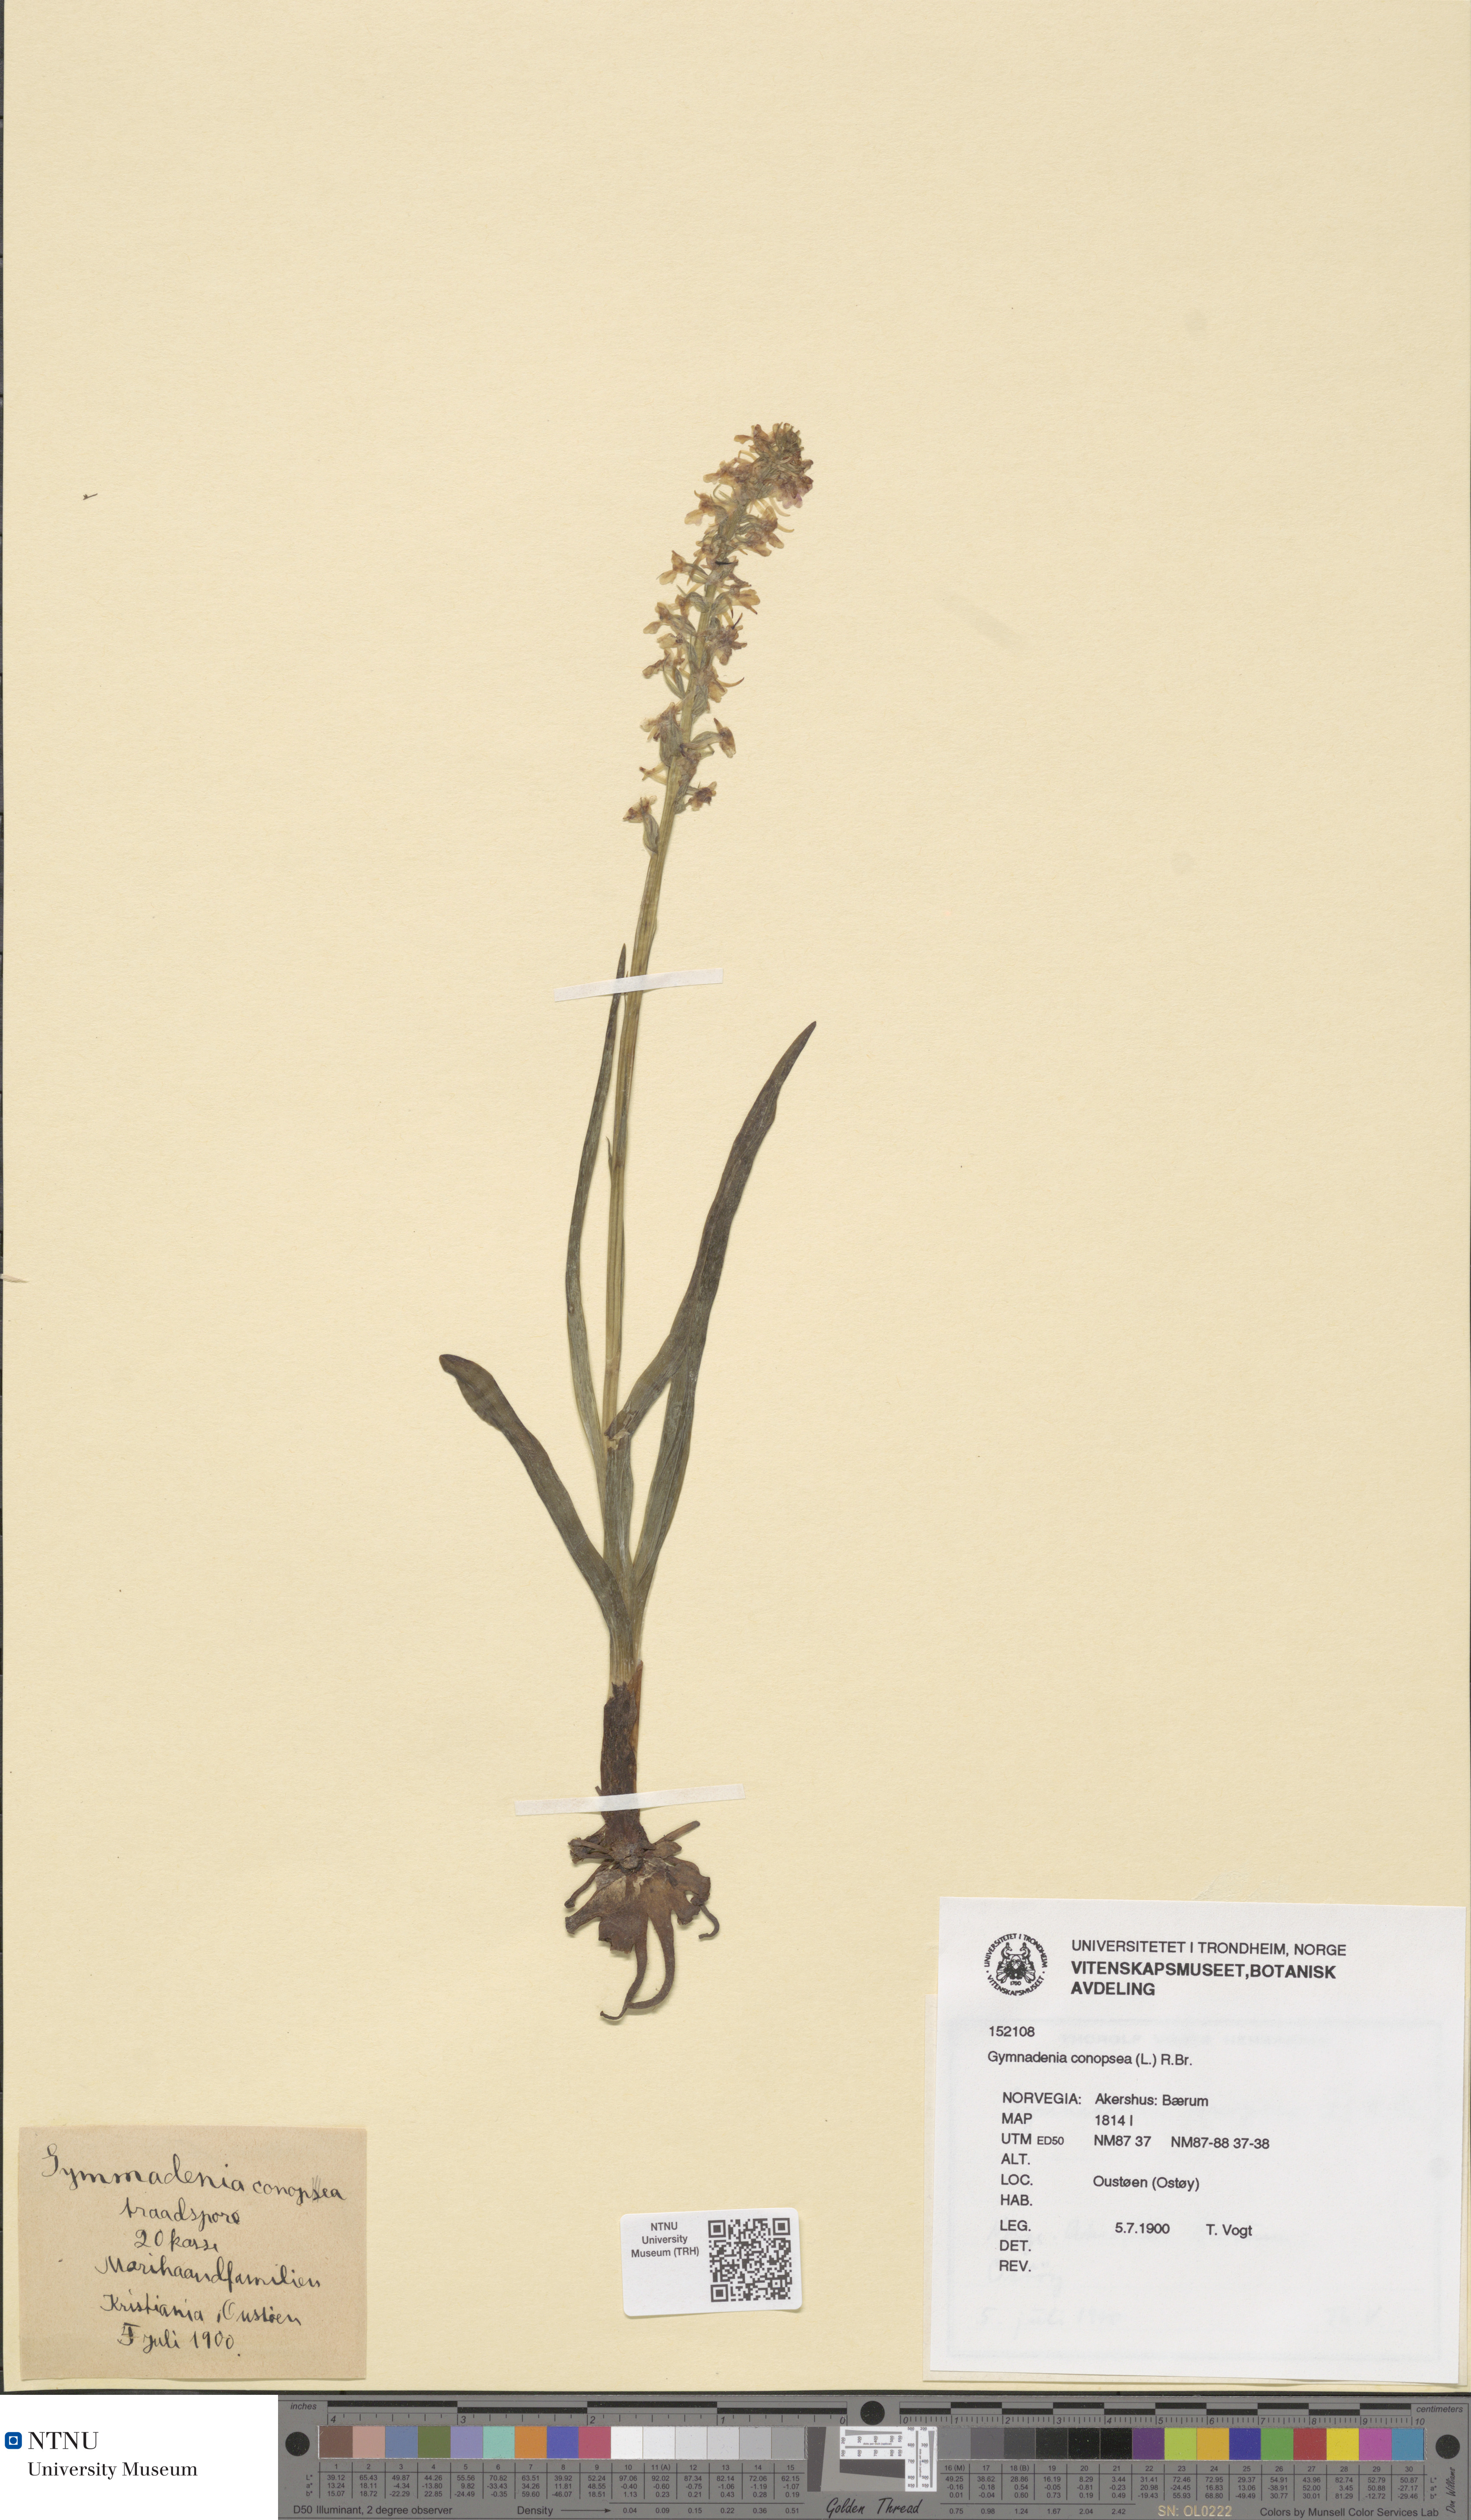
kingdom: Plantae
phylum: Tracheophyta
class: Liliopsida
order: Asparagales
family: Orchidaceae
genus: Gymnadenia
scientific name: Gymnadenia conopsea
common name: Fragrant orchid
